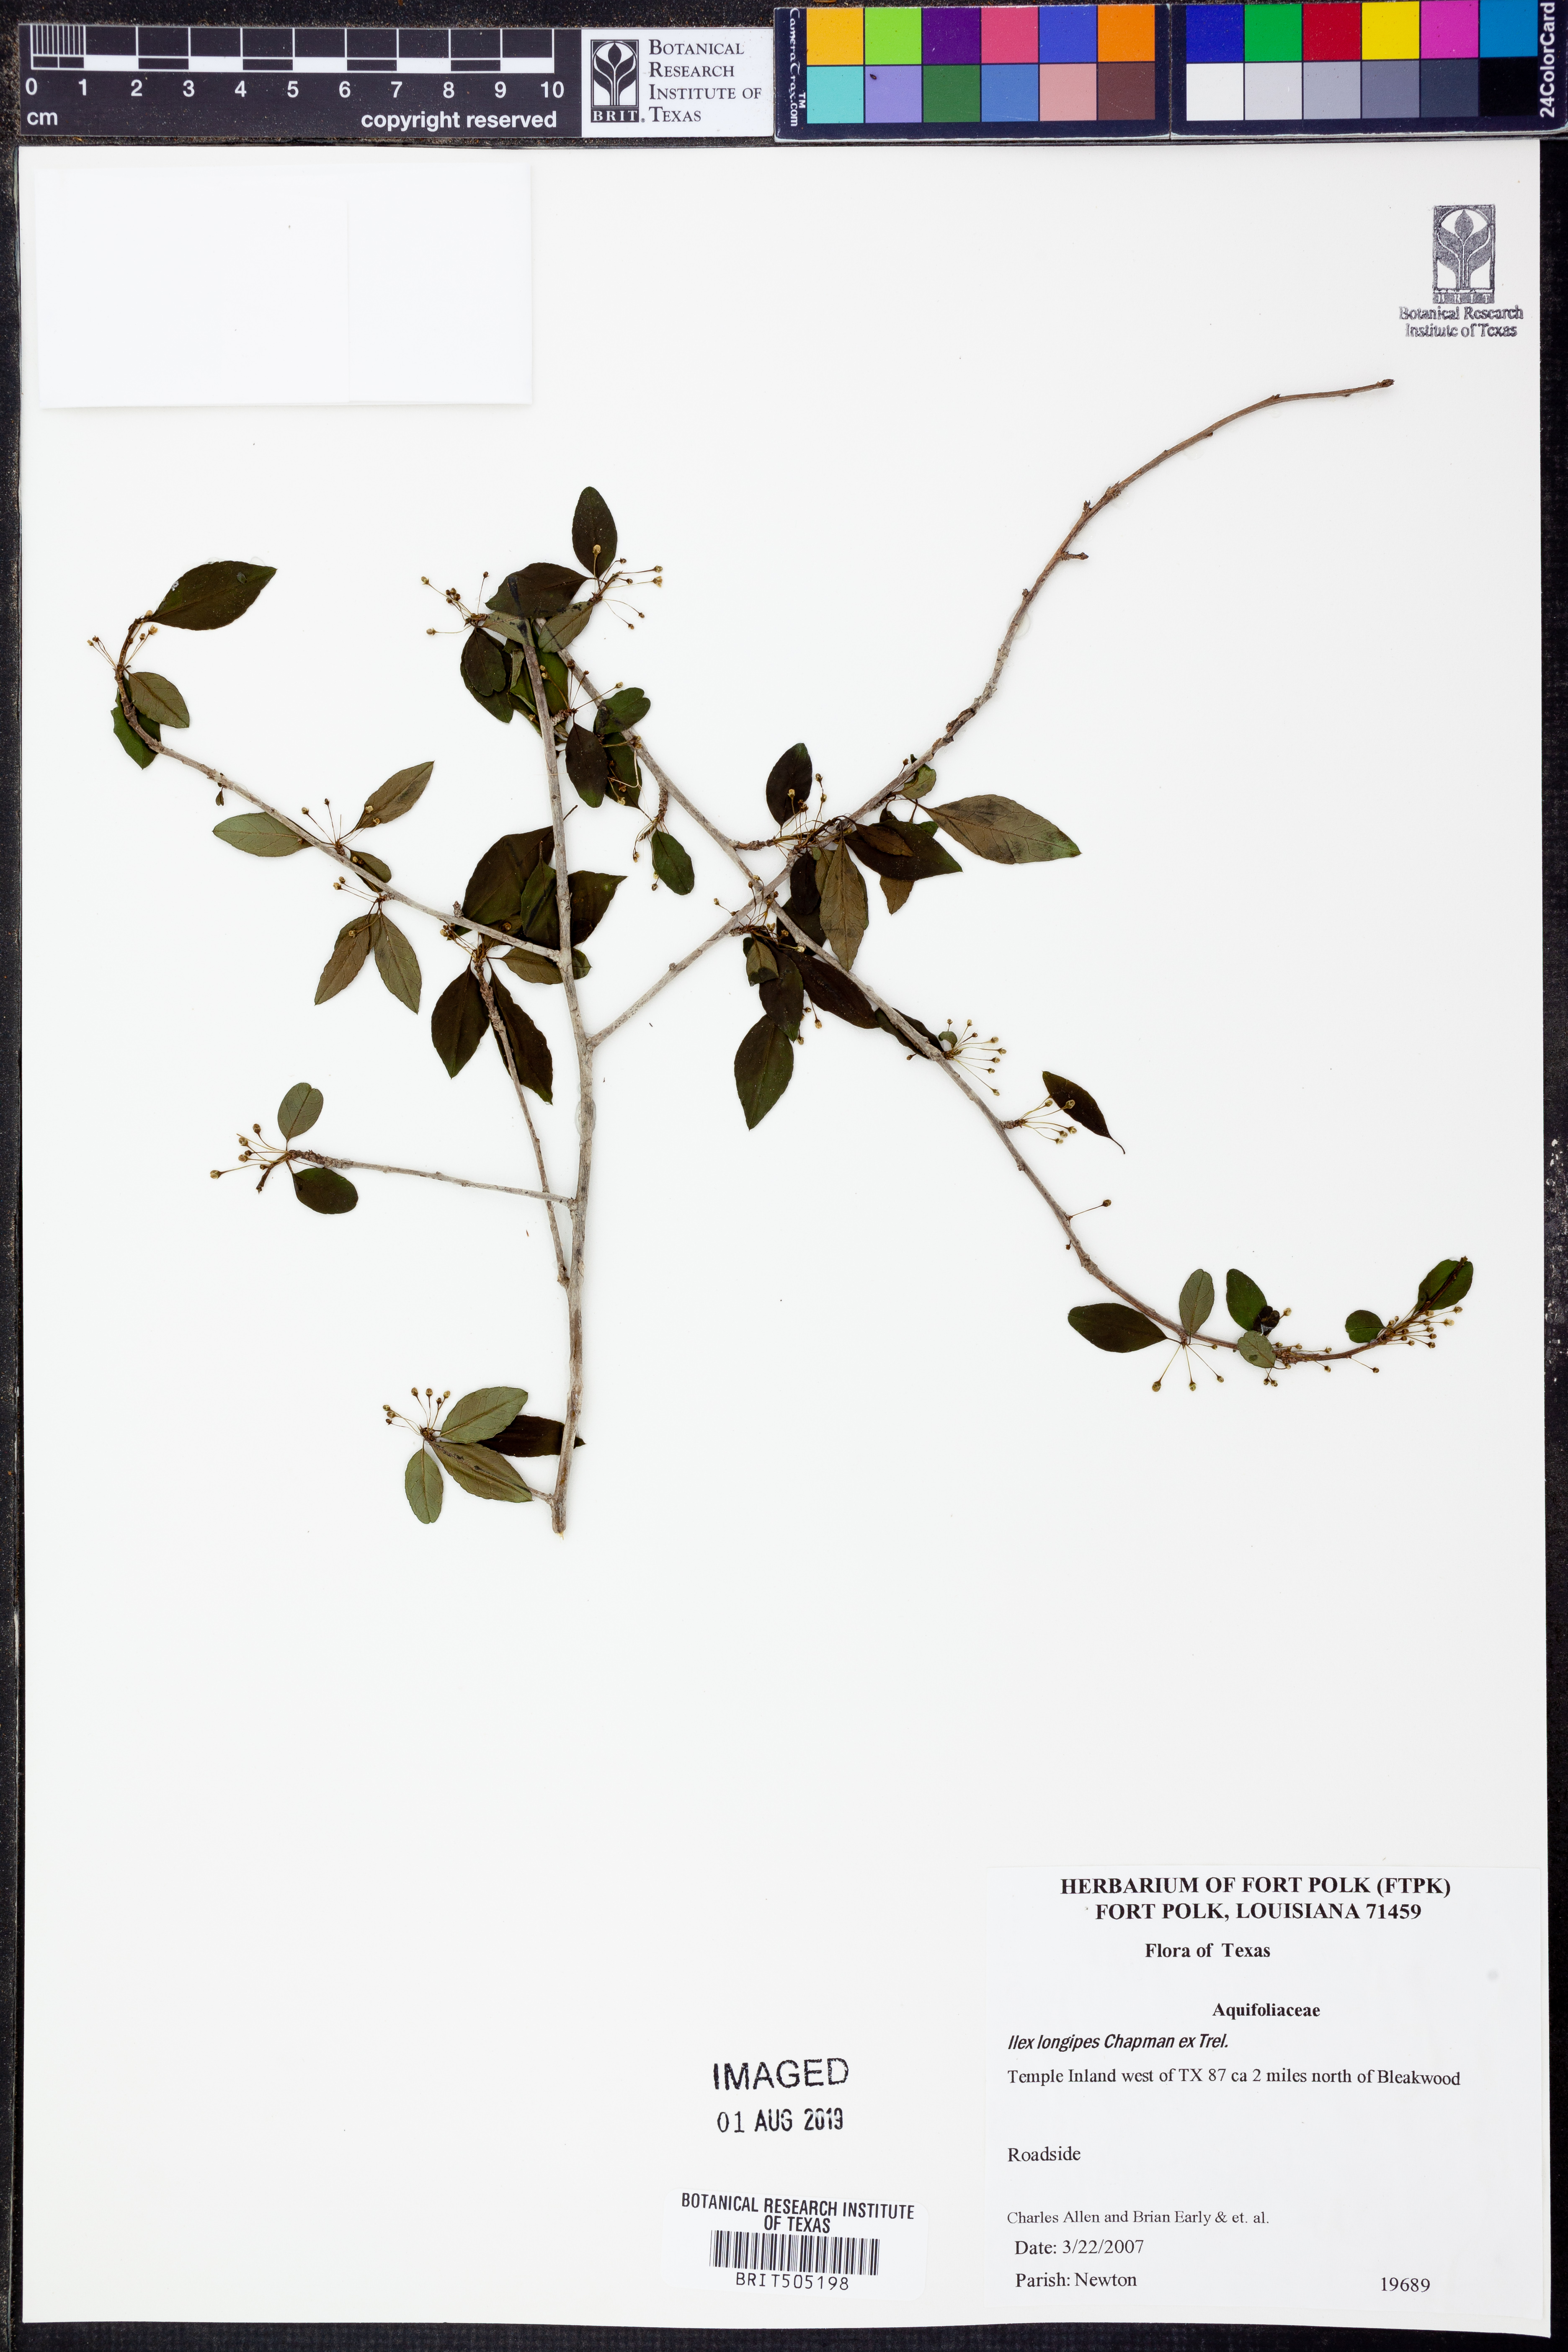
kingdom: Plantae
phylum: Tracheophyta
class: Magnoliopsida
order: Aquifoliales
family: Aquifoliaceae
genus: Ilex
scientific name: Ilex longipes
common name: Georgia holly
